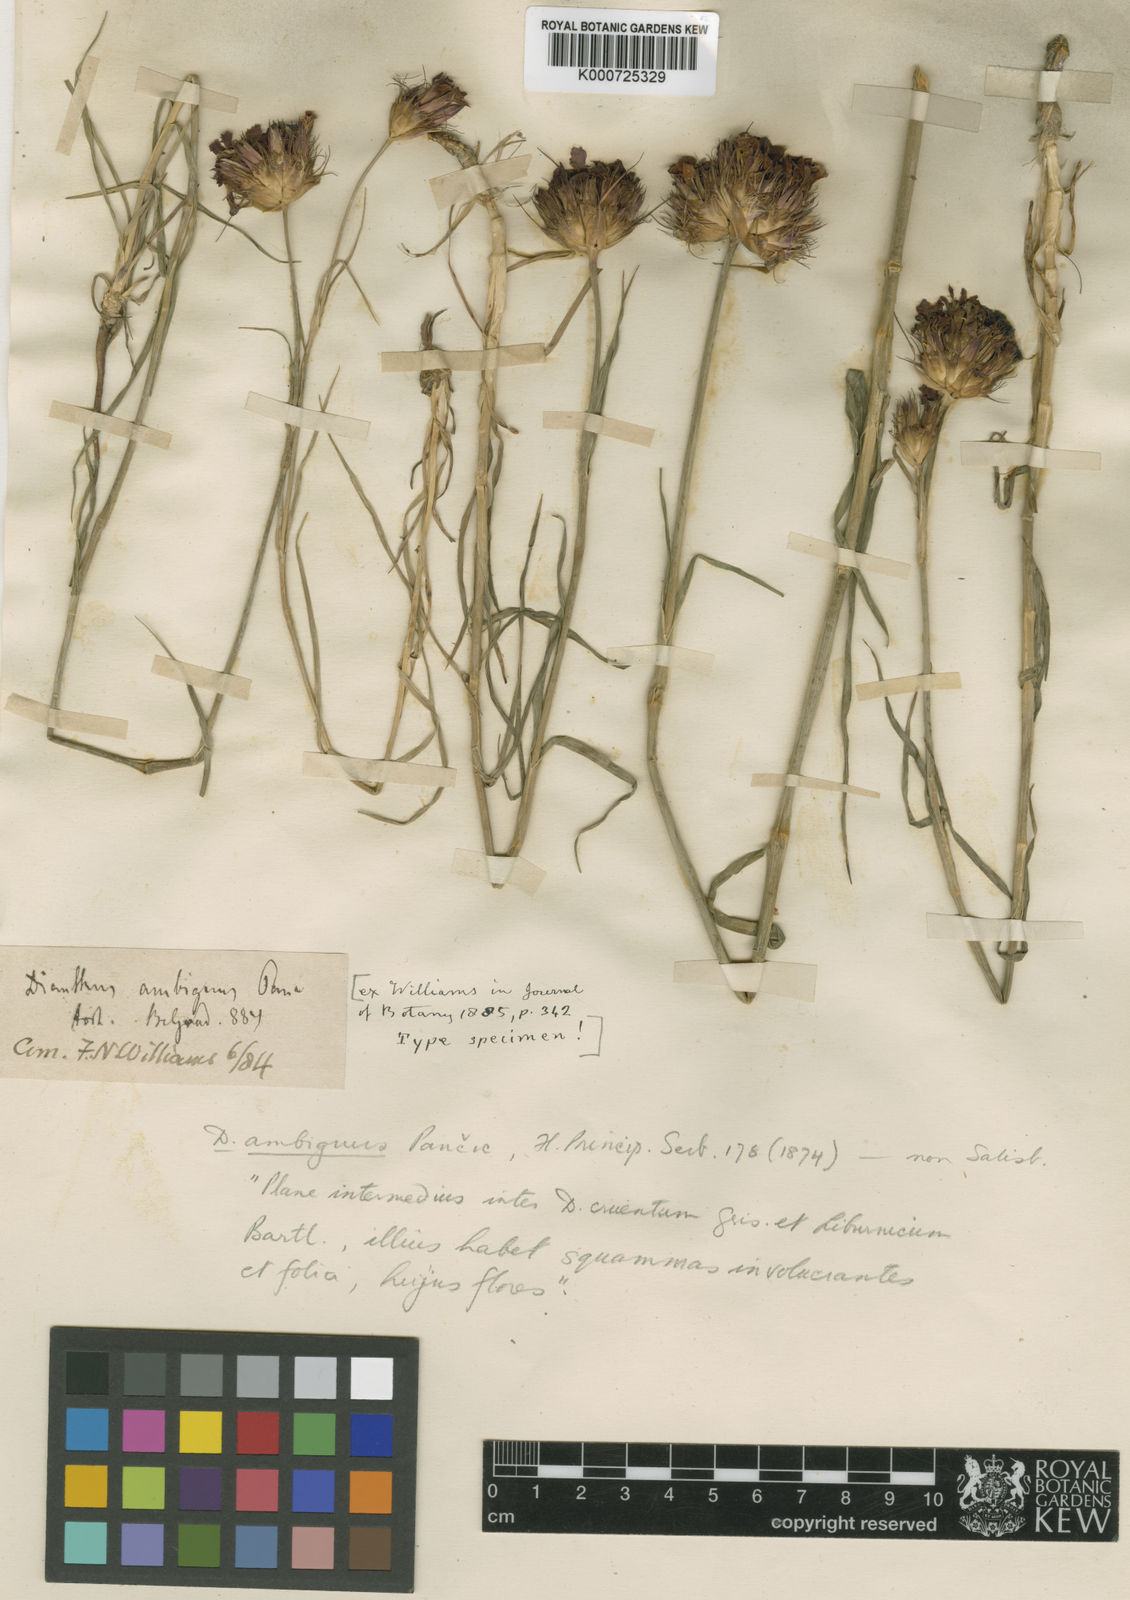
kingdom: Plantae
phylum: Tracheophyta
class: Magnoliopsida
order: Caryophyllales
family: Caryophyllaceae
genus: Dianthus
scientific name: Dianthus cruentus
